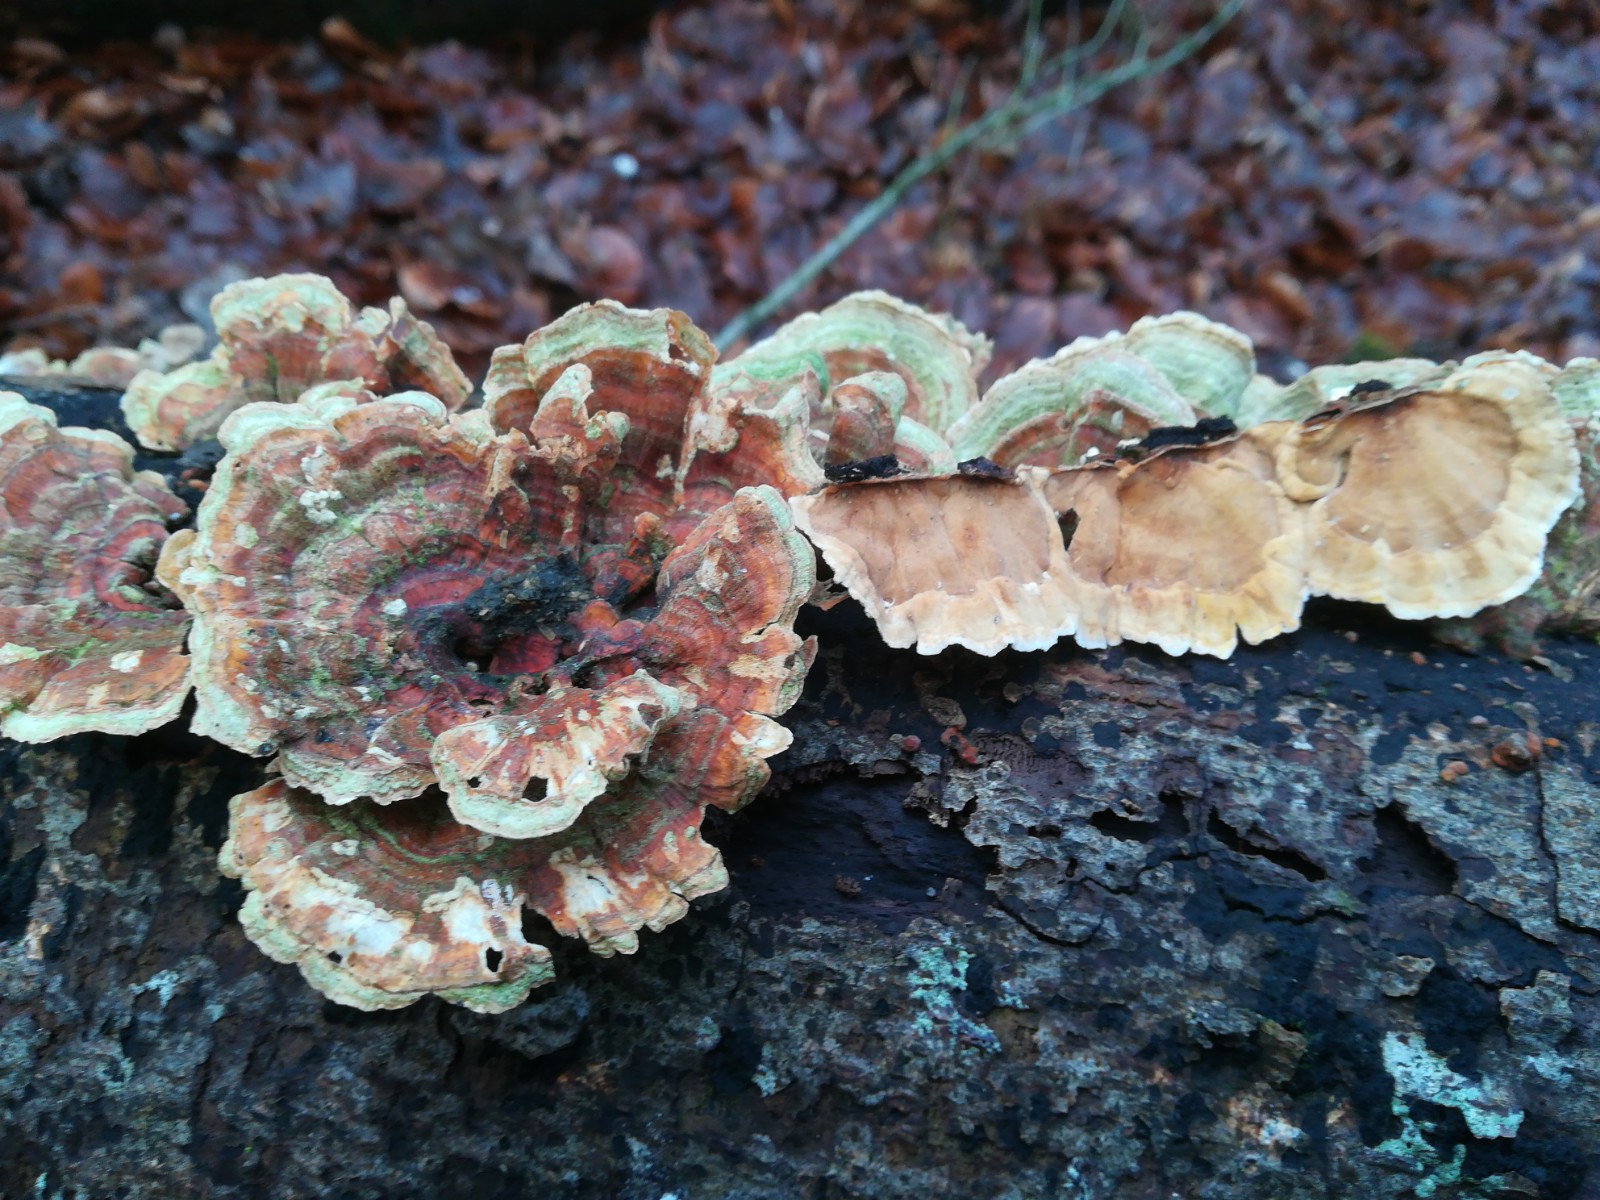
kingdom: Fungi
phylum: Basidiomycota
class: Agaricomycetes
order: Russulales
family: Stereaceae
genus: Stereum
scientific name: Stereum subtomentosum
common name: smuk lædersvamp
